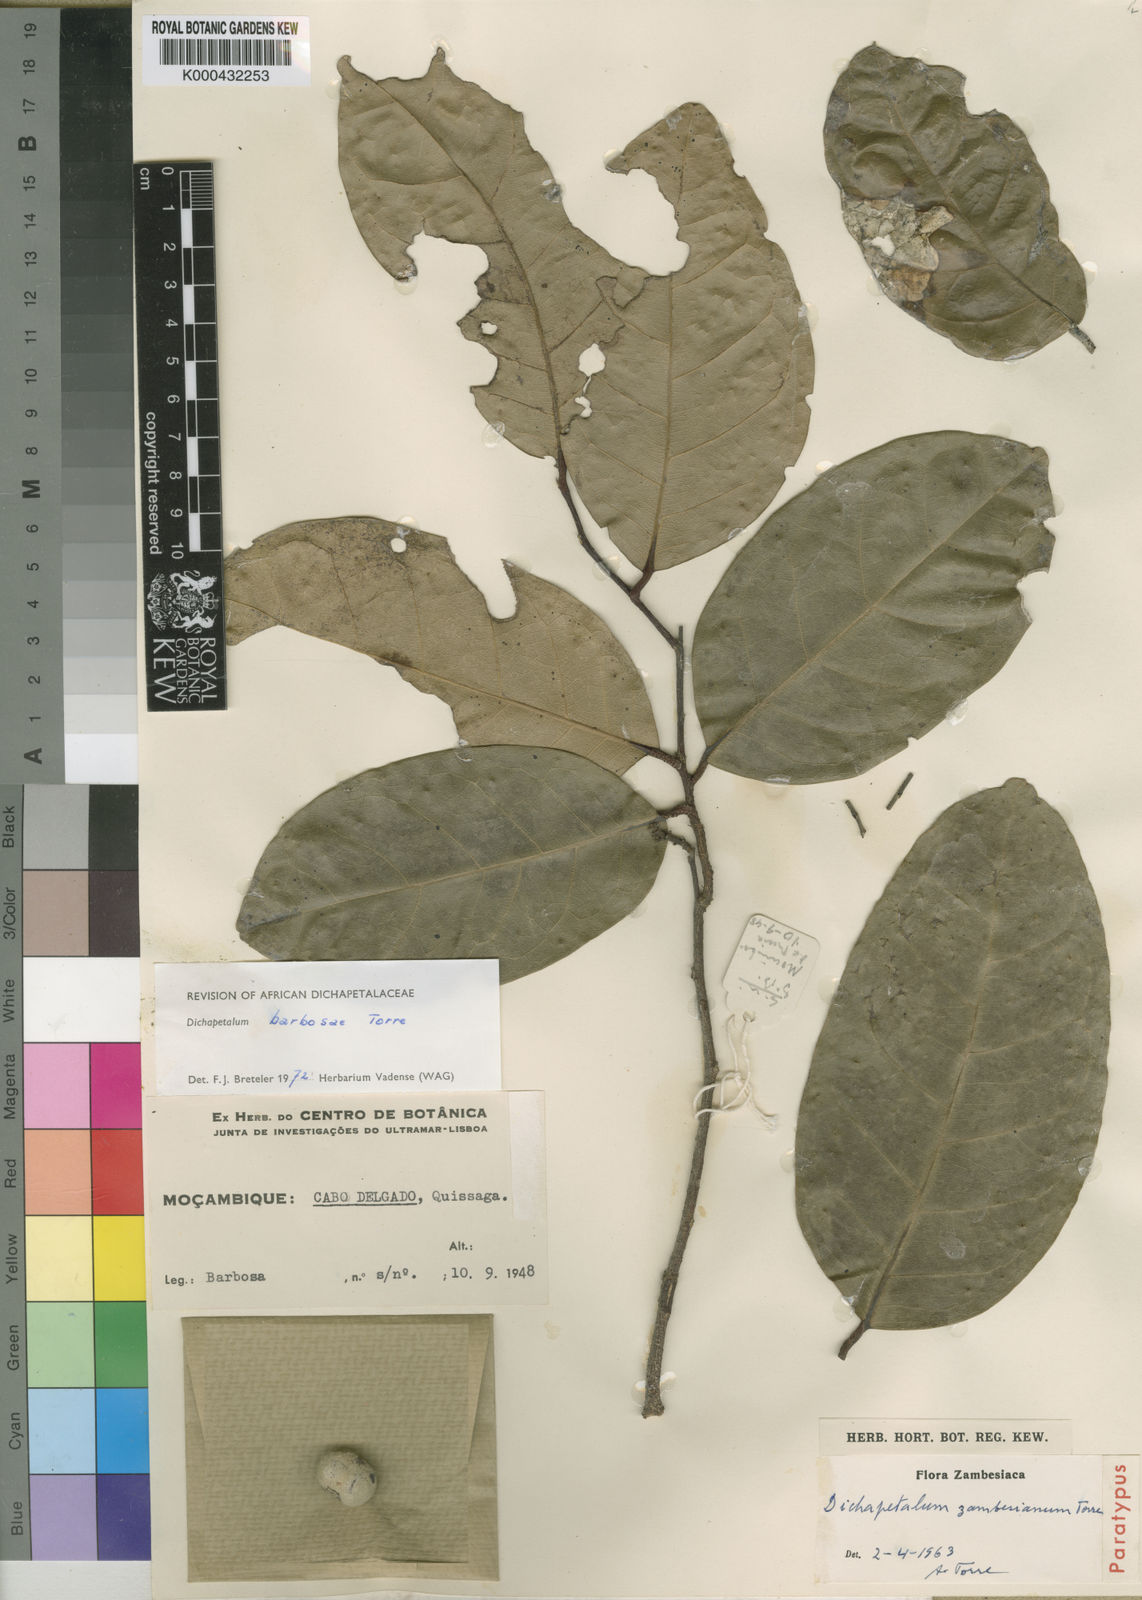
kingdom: Plantae
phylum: Tracheophyta
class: Magnoliopsida
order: Malpighiales
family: Dichapetalaceae
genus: Dichapetalum
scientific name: Dichapetalum barbosae
